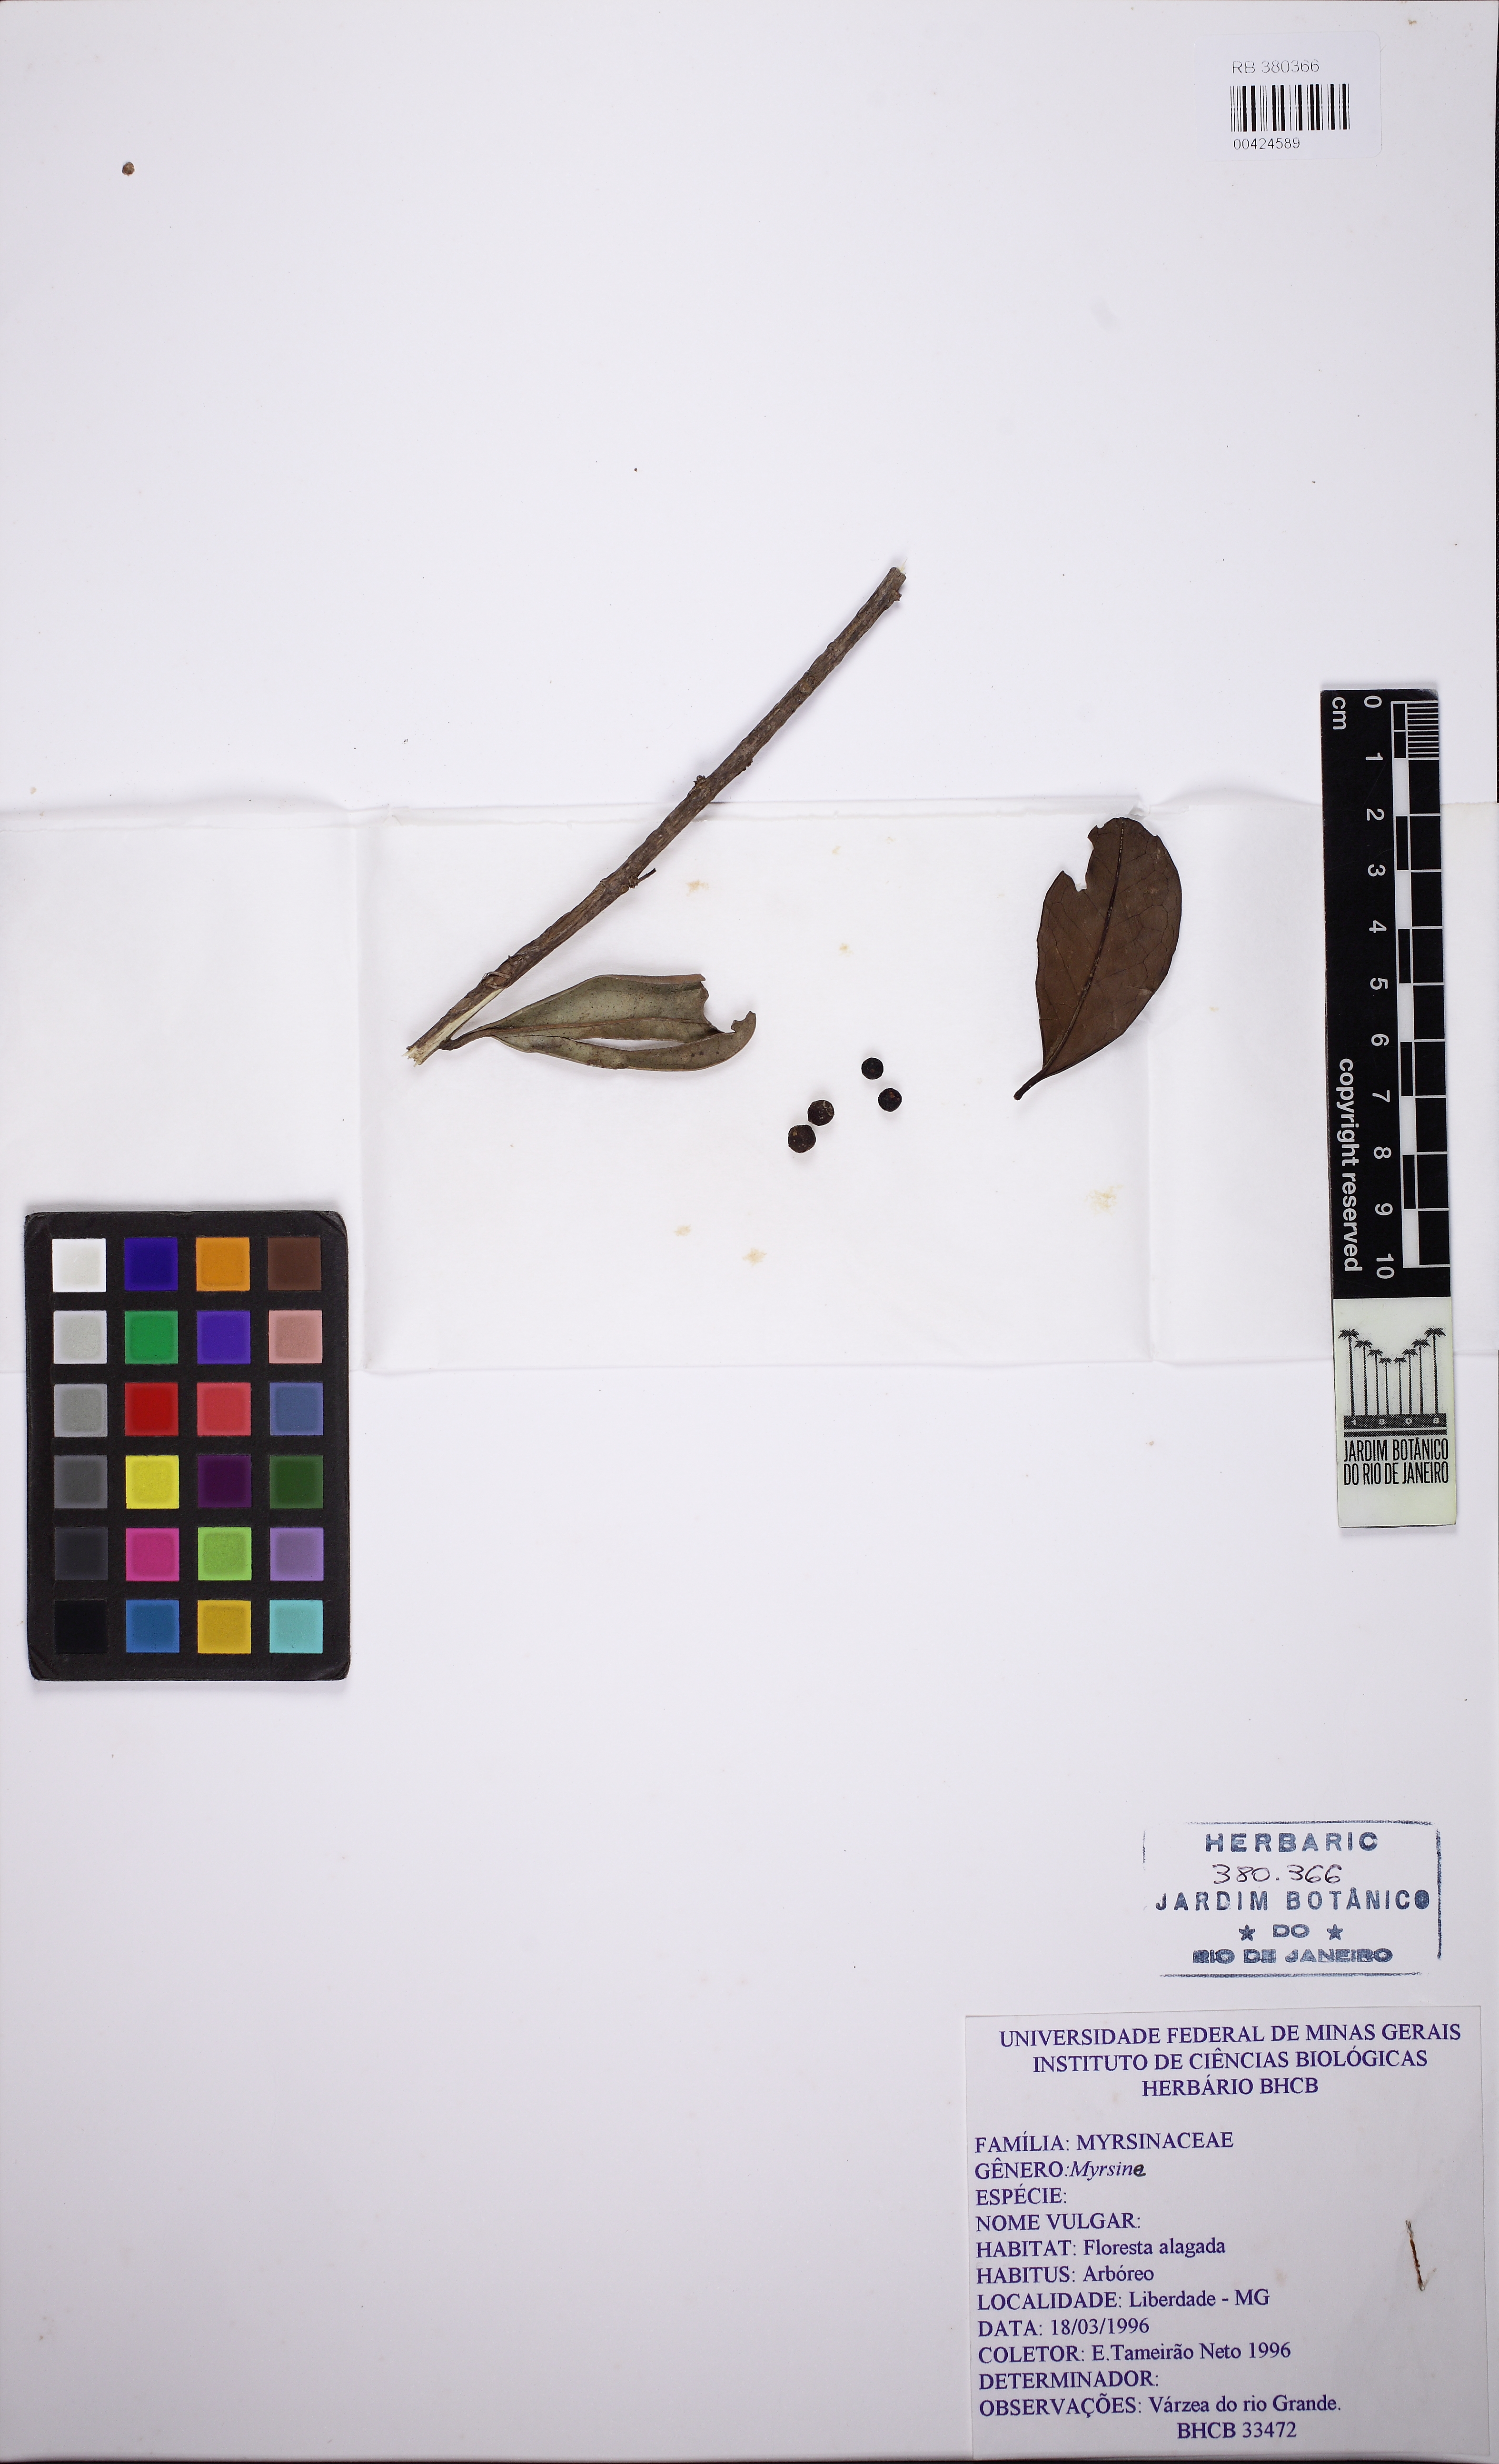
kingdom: Plantae
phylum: Tracheophyta
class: Magnoliopsida
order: Ericales
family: Primulaceae
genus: Myrsine
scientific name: Myrsine
